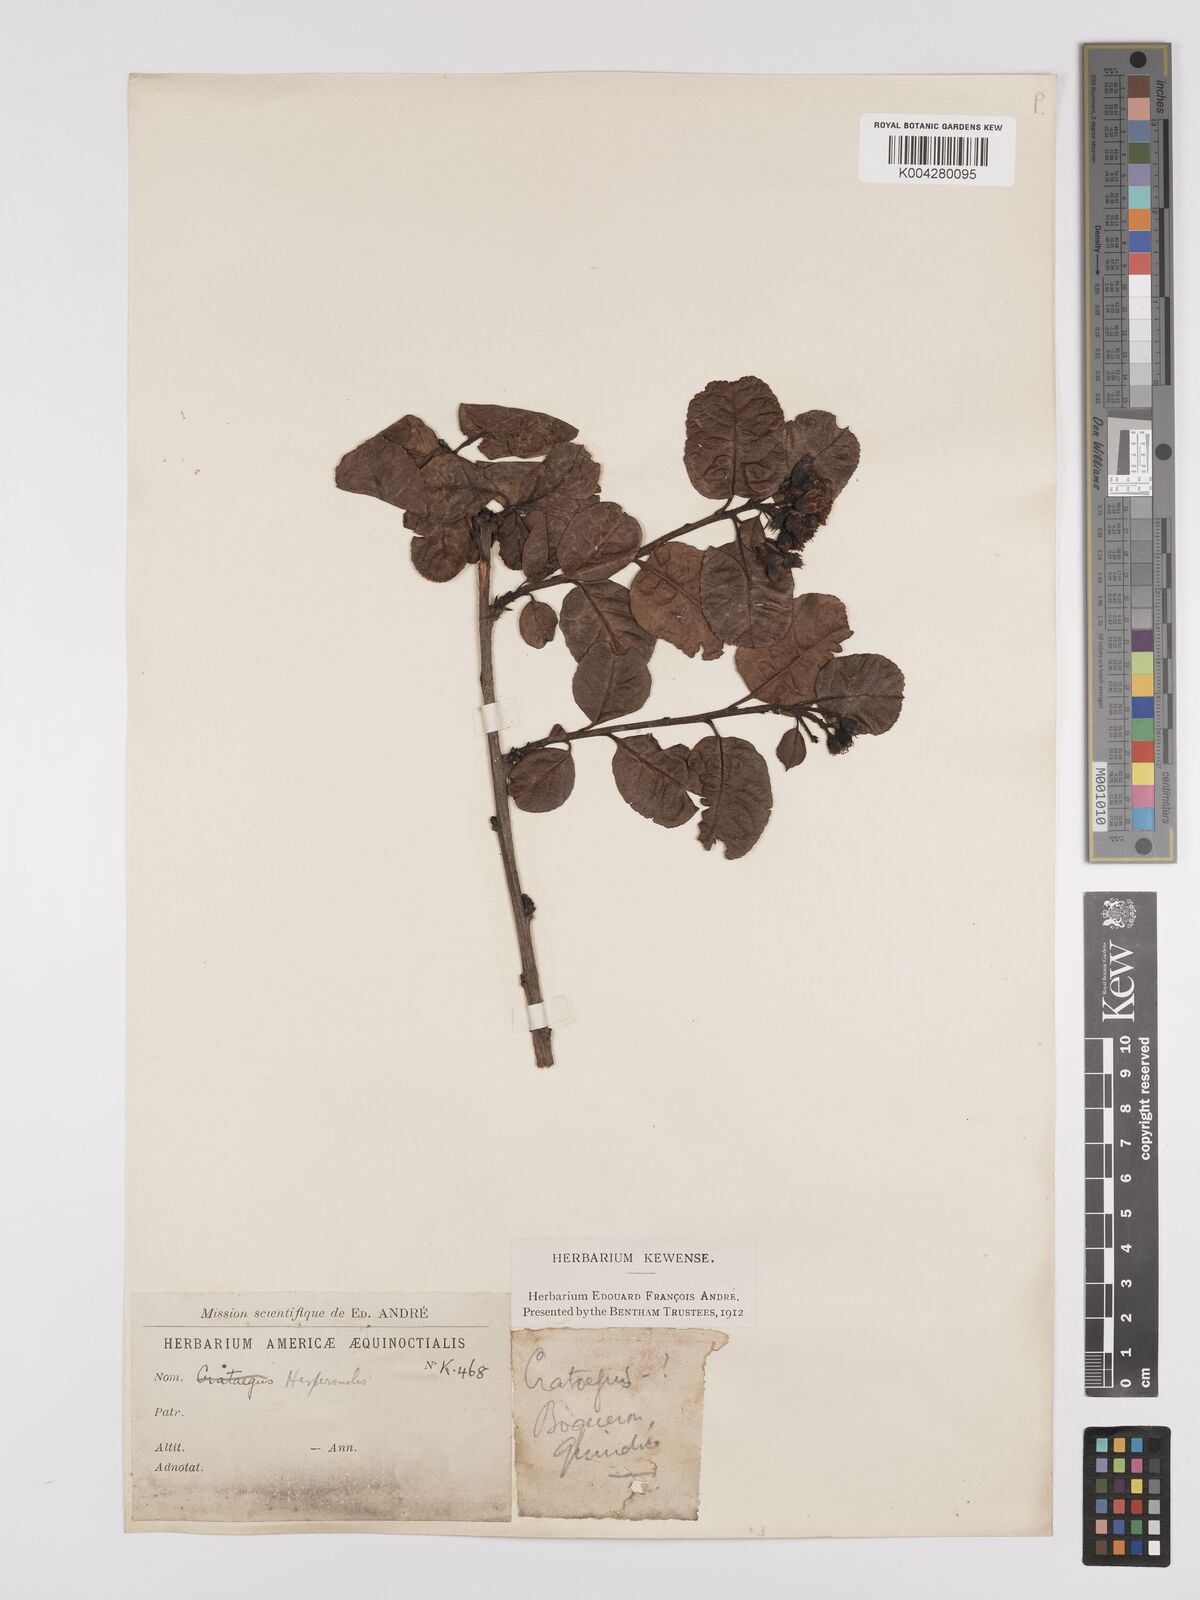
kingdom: Plantae
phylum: Tracheophyta
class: Magnoliopsida
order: Rosales
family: Rosaceae
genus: Hesperomeles
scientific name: Hesperomeles obtusifolia
